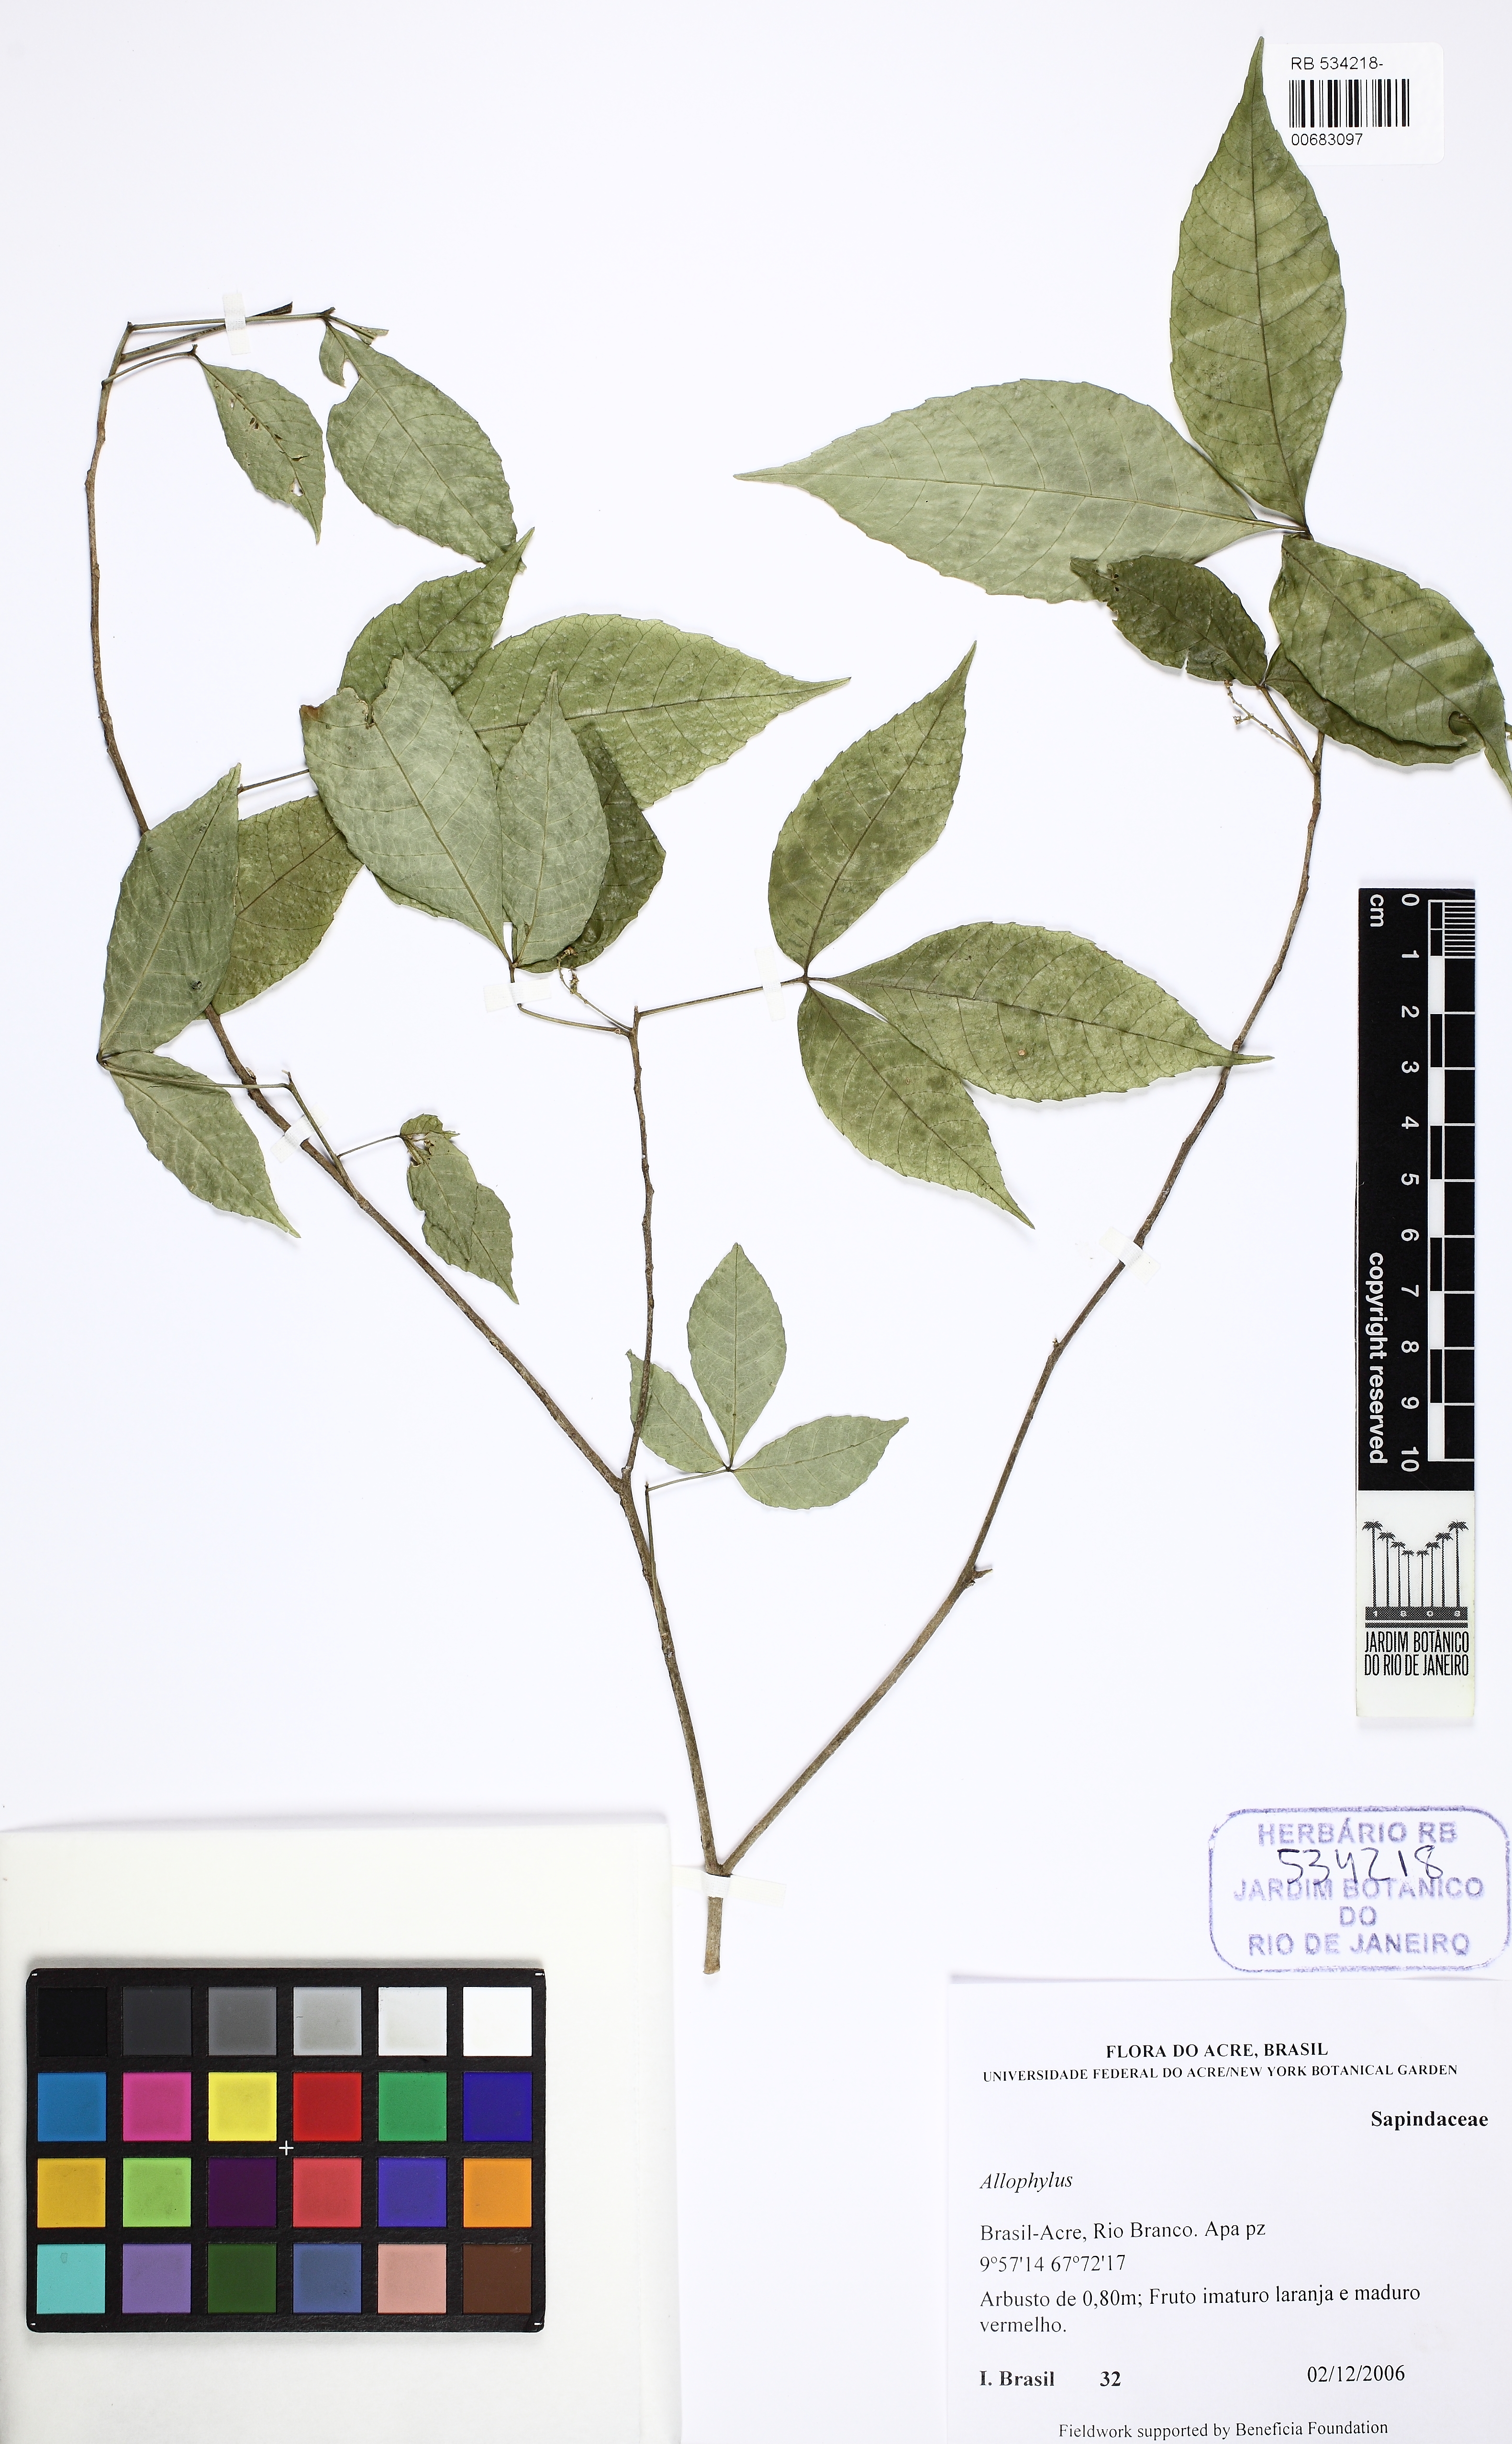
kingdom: Plantae
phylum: Tracheophyta
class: Magnoliopsida
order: Sapindales
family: Sapindaceae
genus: Allophylus
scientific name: Allophylus punctatus
